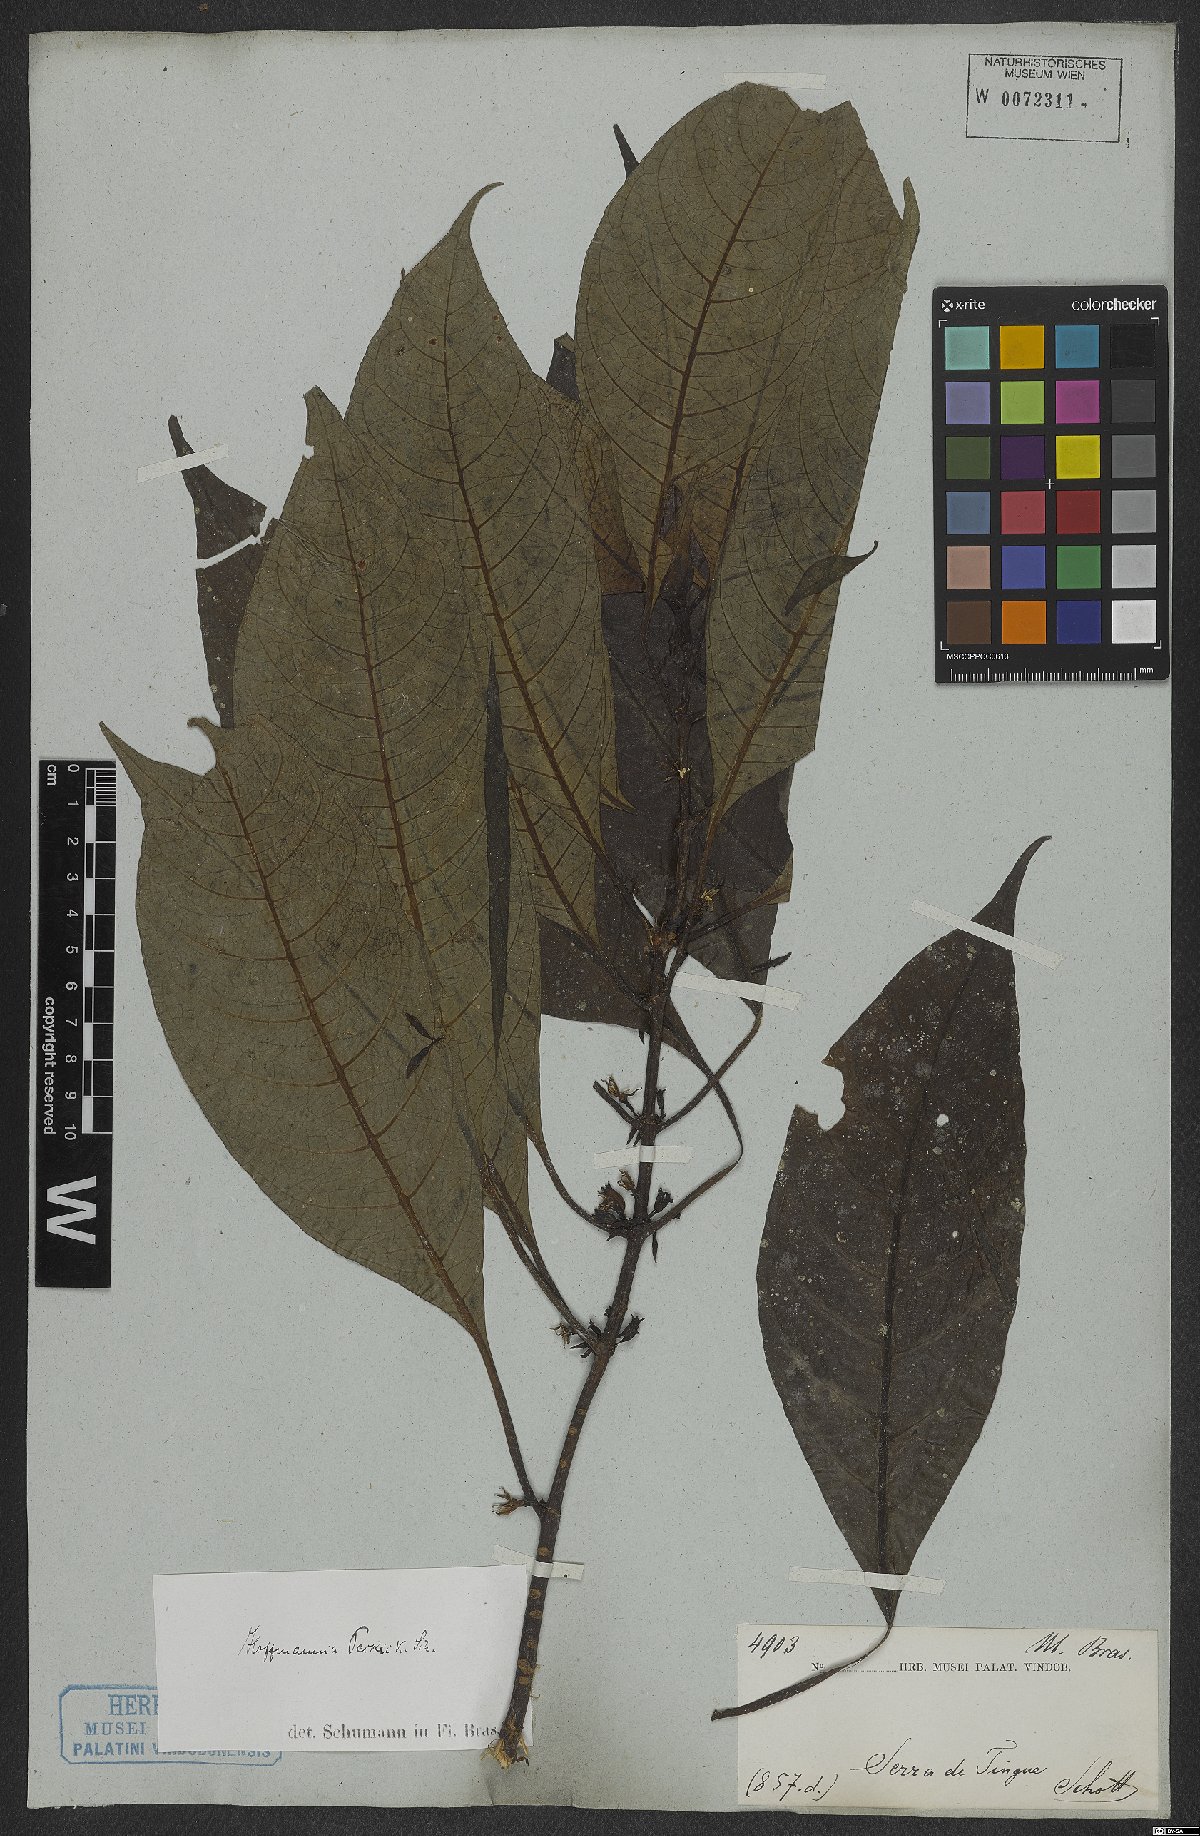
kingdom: Plantae
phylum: Tracheophyta
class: Magnoliopsida
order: Gentianales
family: Rubiaceae
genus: Hoffmannia
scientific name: Hoffmannia peckii
